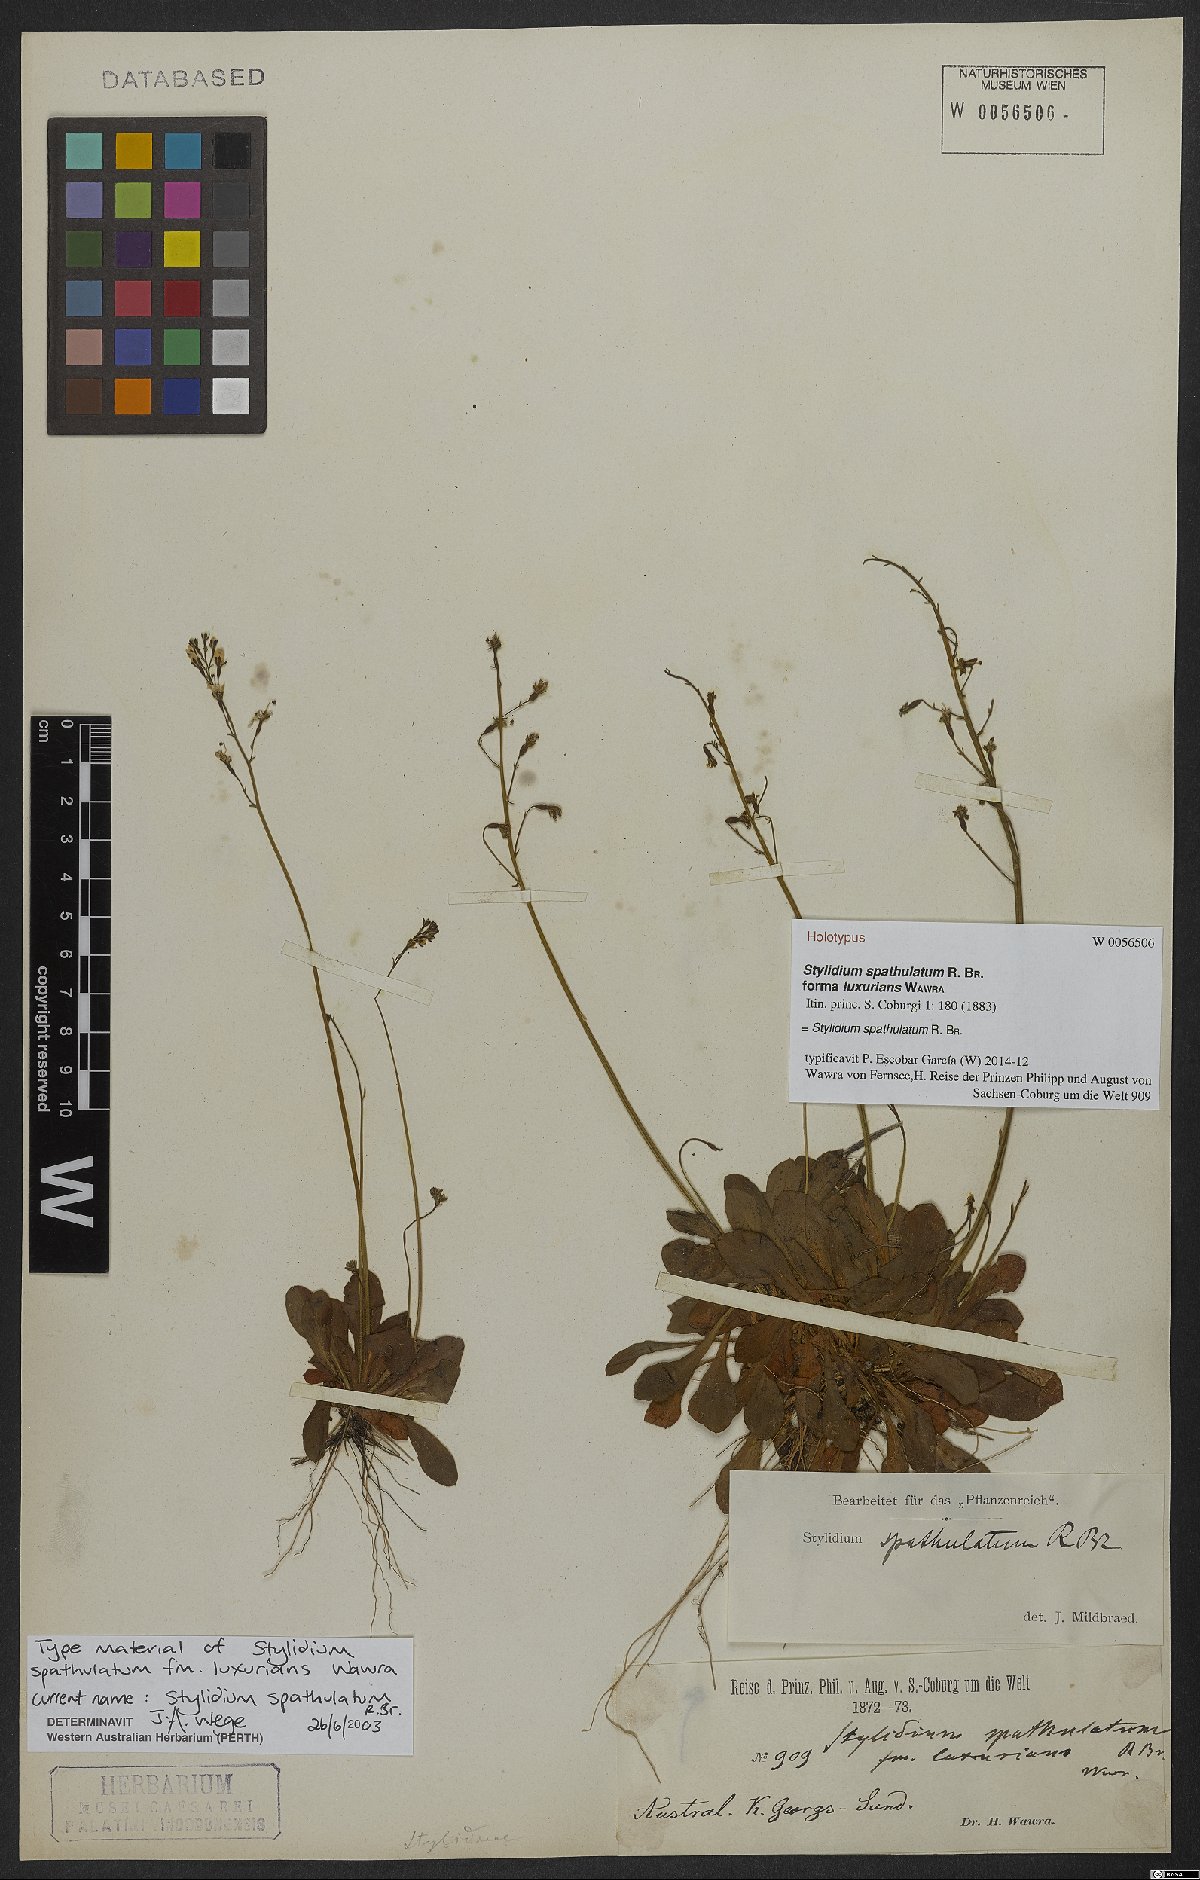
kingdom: Plantae
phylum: Tracheophyta
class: Magnoliopsida
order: Asterales
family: Stylidiaceae
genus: Stylidium
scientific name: Stylidium spathulatum
